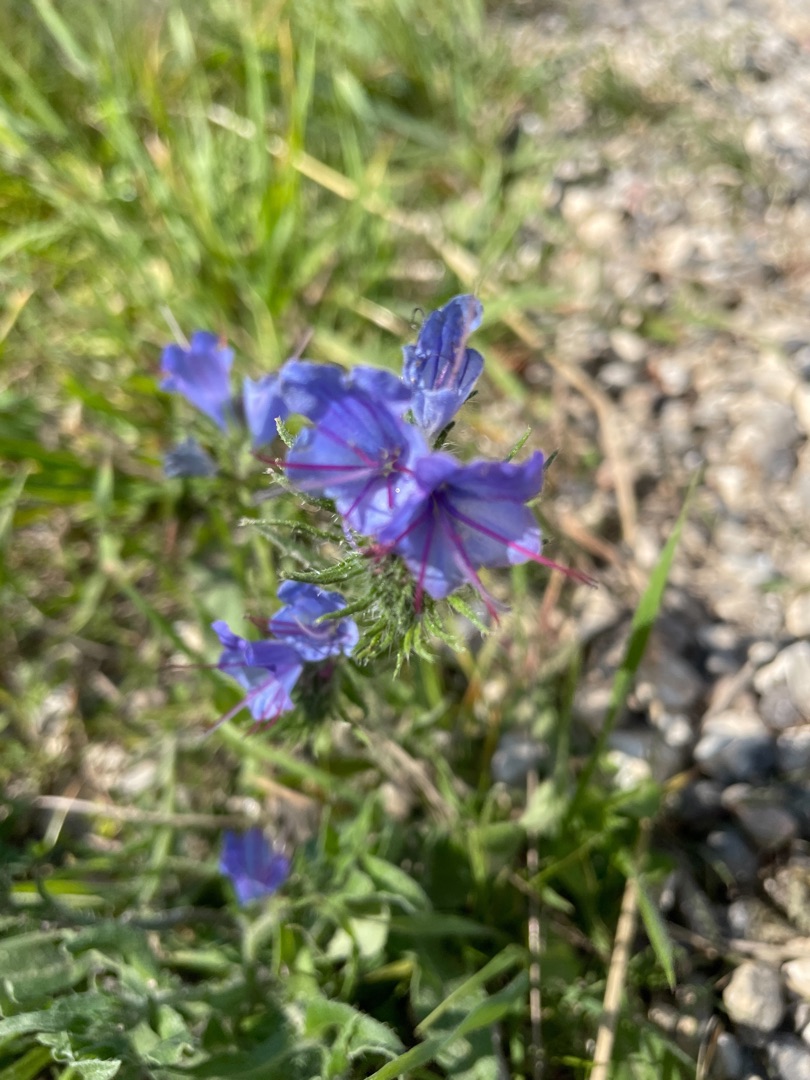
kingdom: Plantae
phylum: Tracheophyta
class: Magnoliopsida
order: Boraginales
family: Boraginaceae
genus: Echium
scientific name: Echium vulgare
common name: Slangehoved
